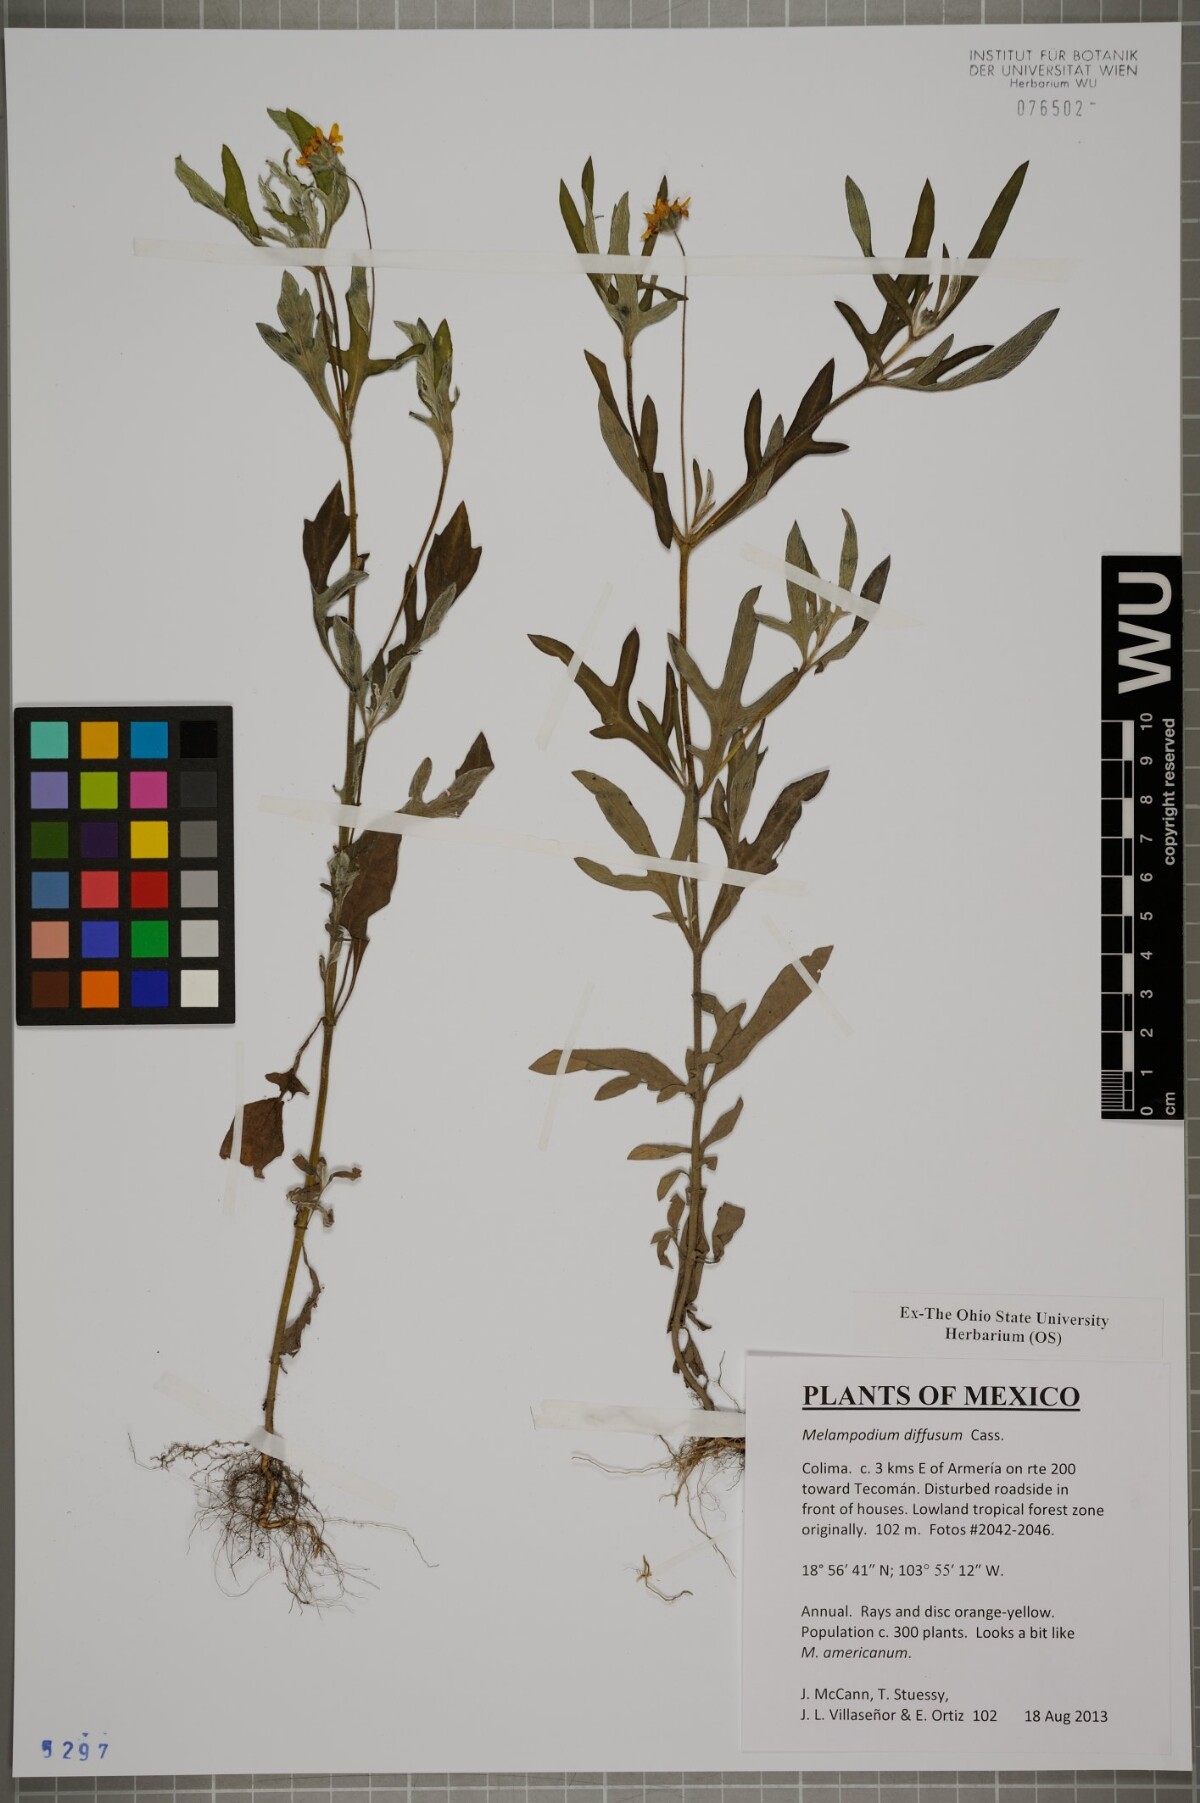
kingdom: Plantae
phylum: Tracheophyta
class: Magnoliopsida
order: Asterales
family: Asteraceae
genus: Melampodium
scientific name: Melampodium diffusum
